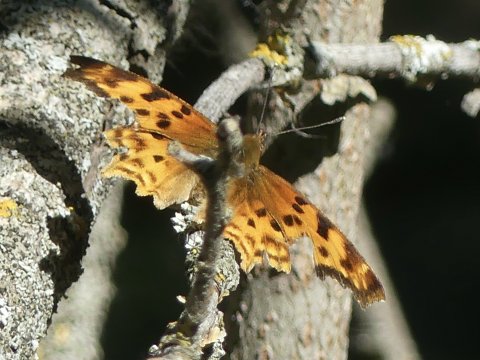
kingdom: Animalia
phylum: Arthropoda
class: Insecta
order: Lepidoptera
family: Nymphalidae
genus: Polygonia
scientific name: Polygonia satyrus
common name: Satyr Comma
